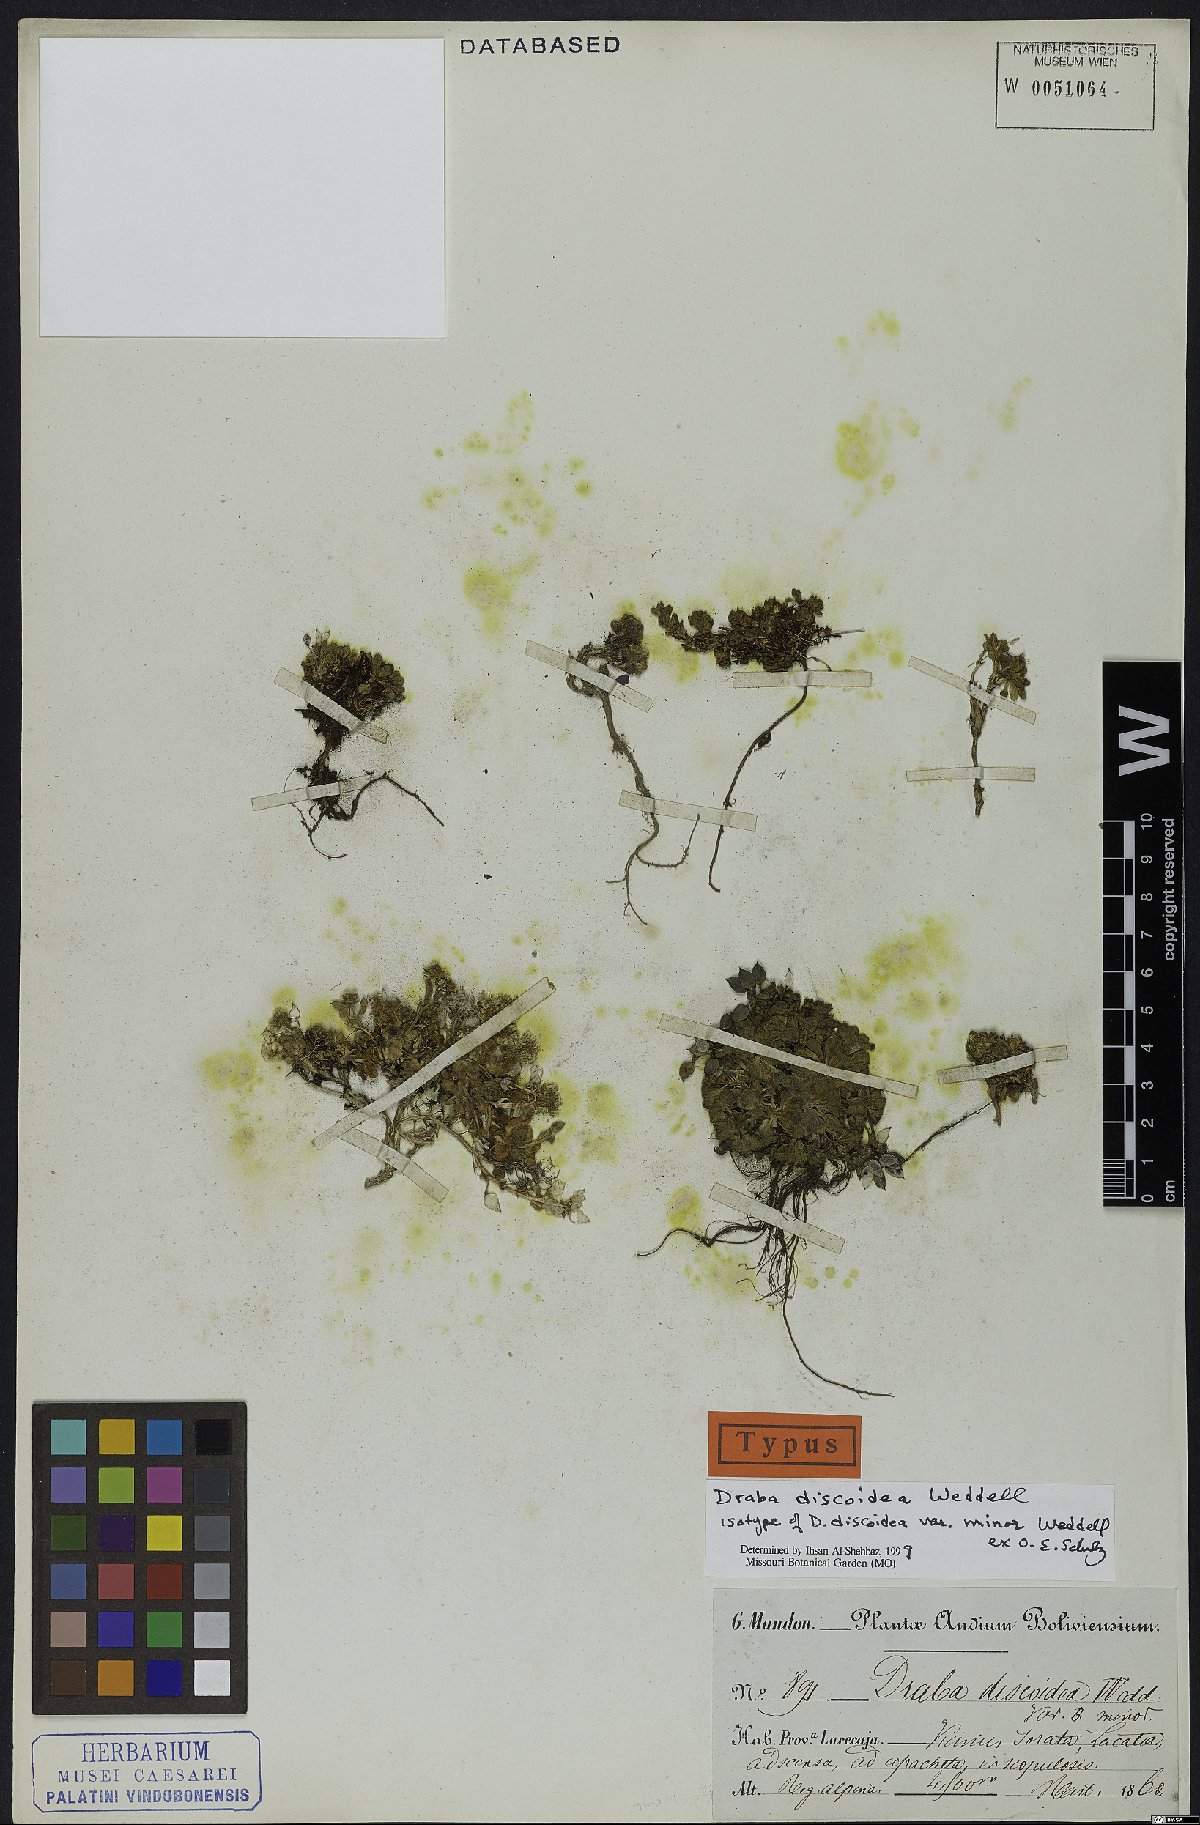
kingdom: Plantae
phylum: Tracheophyta
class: Magnoliopsida
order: Brassicales
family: Brassicaceae
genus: Draba
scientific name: Draba discoidea
